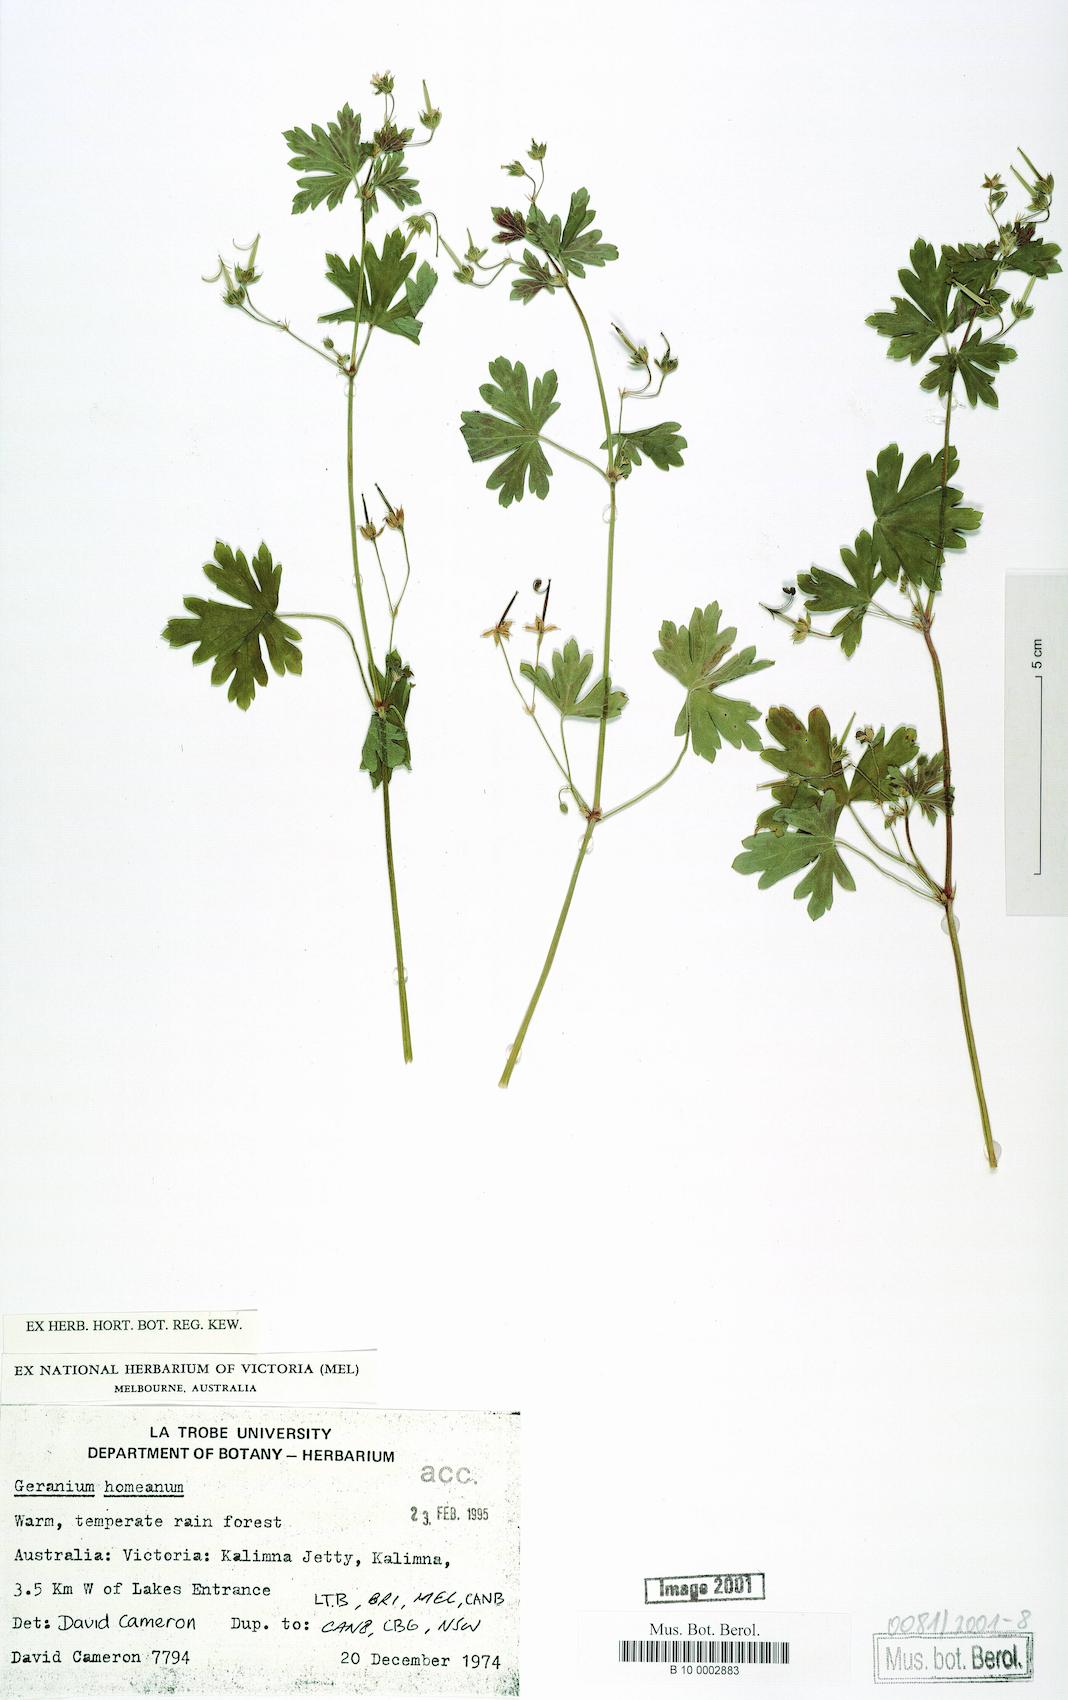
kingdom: Plantae
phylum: Tracheophyta
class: Magnoliopsida
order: Geraniales
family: Geraniaceae
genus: Geranium
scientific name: Geranium homeanum
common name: Australasian geranium
